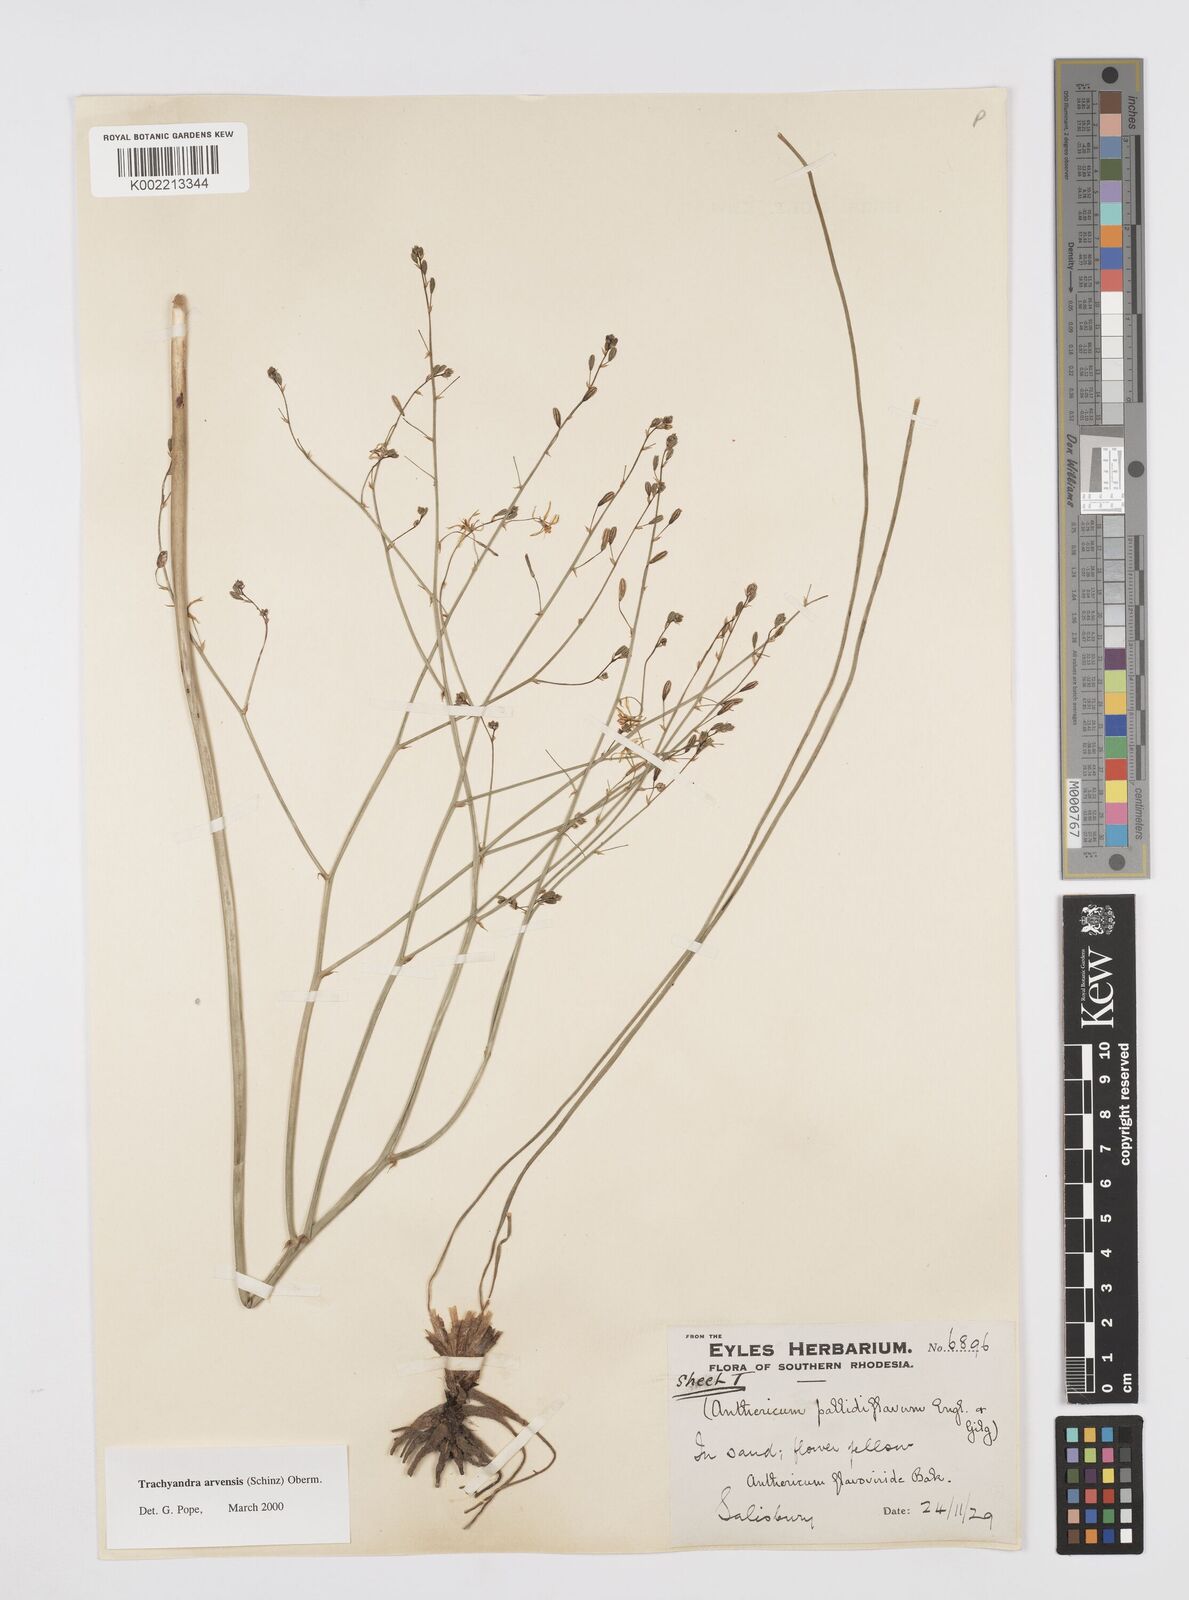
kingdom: Plantae
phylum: Tracheophyta
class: Liliopsida
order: Asparagales
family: Asphodelaceae
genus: Trachyandra
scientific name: Trachyandra arvensis
